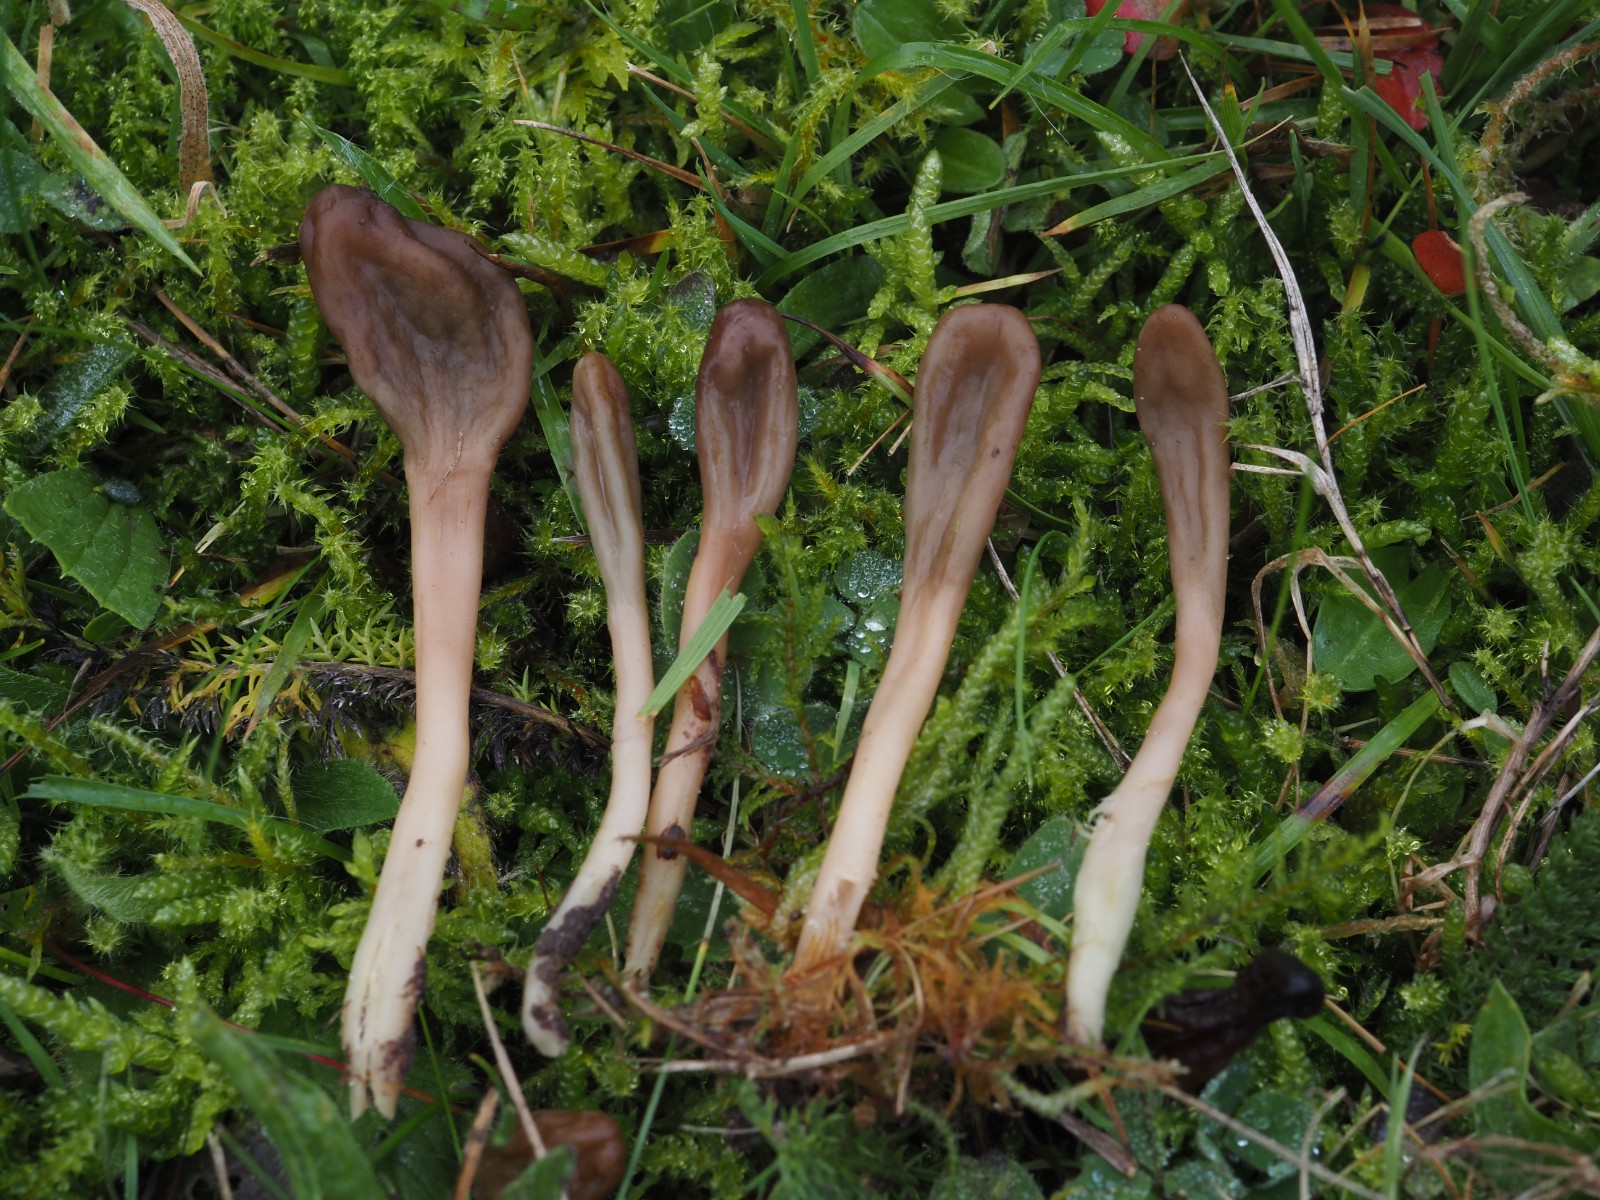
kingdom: Fungi
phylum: Ascomycota
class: Leotiomycetes
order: Leotiales
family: Leotiaceae
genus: Microglossum
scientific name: Microglossum olivaceum
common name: olivenbrun farvetunge
